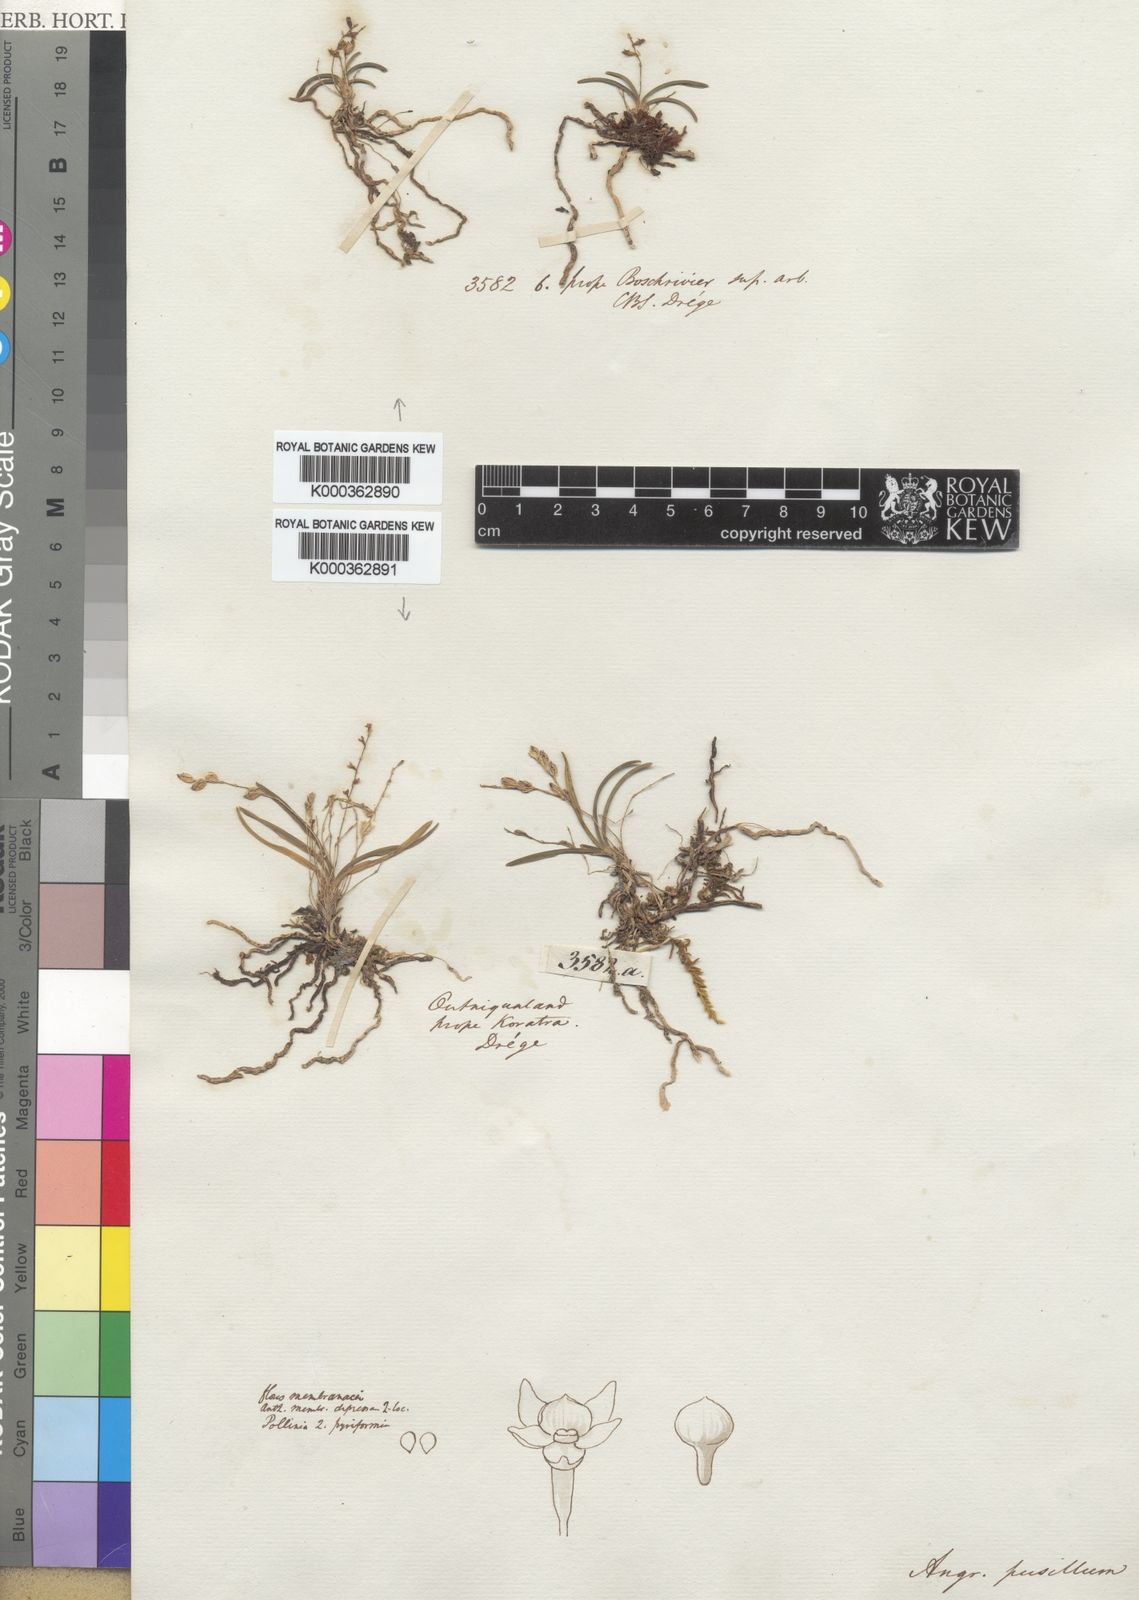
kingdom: Plantae
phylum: Tracheophyta
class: Liliopsida
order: Asparagales
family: Orchidaceae
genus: Angraecum
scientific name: Angraecum pusillum
